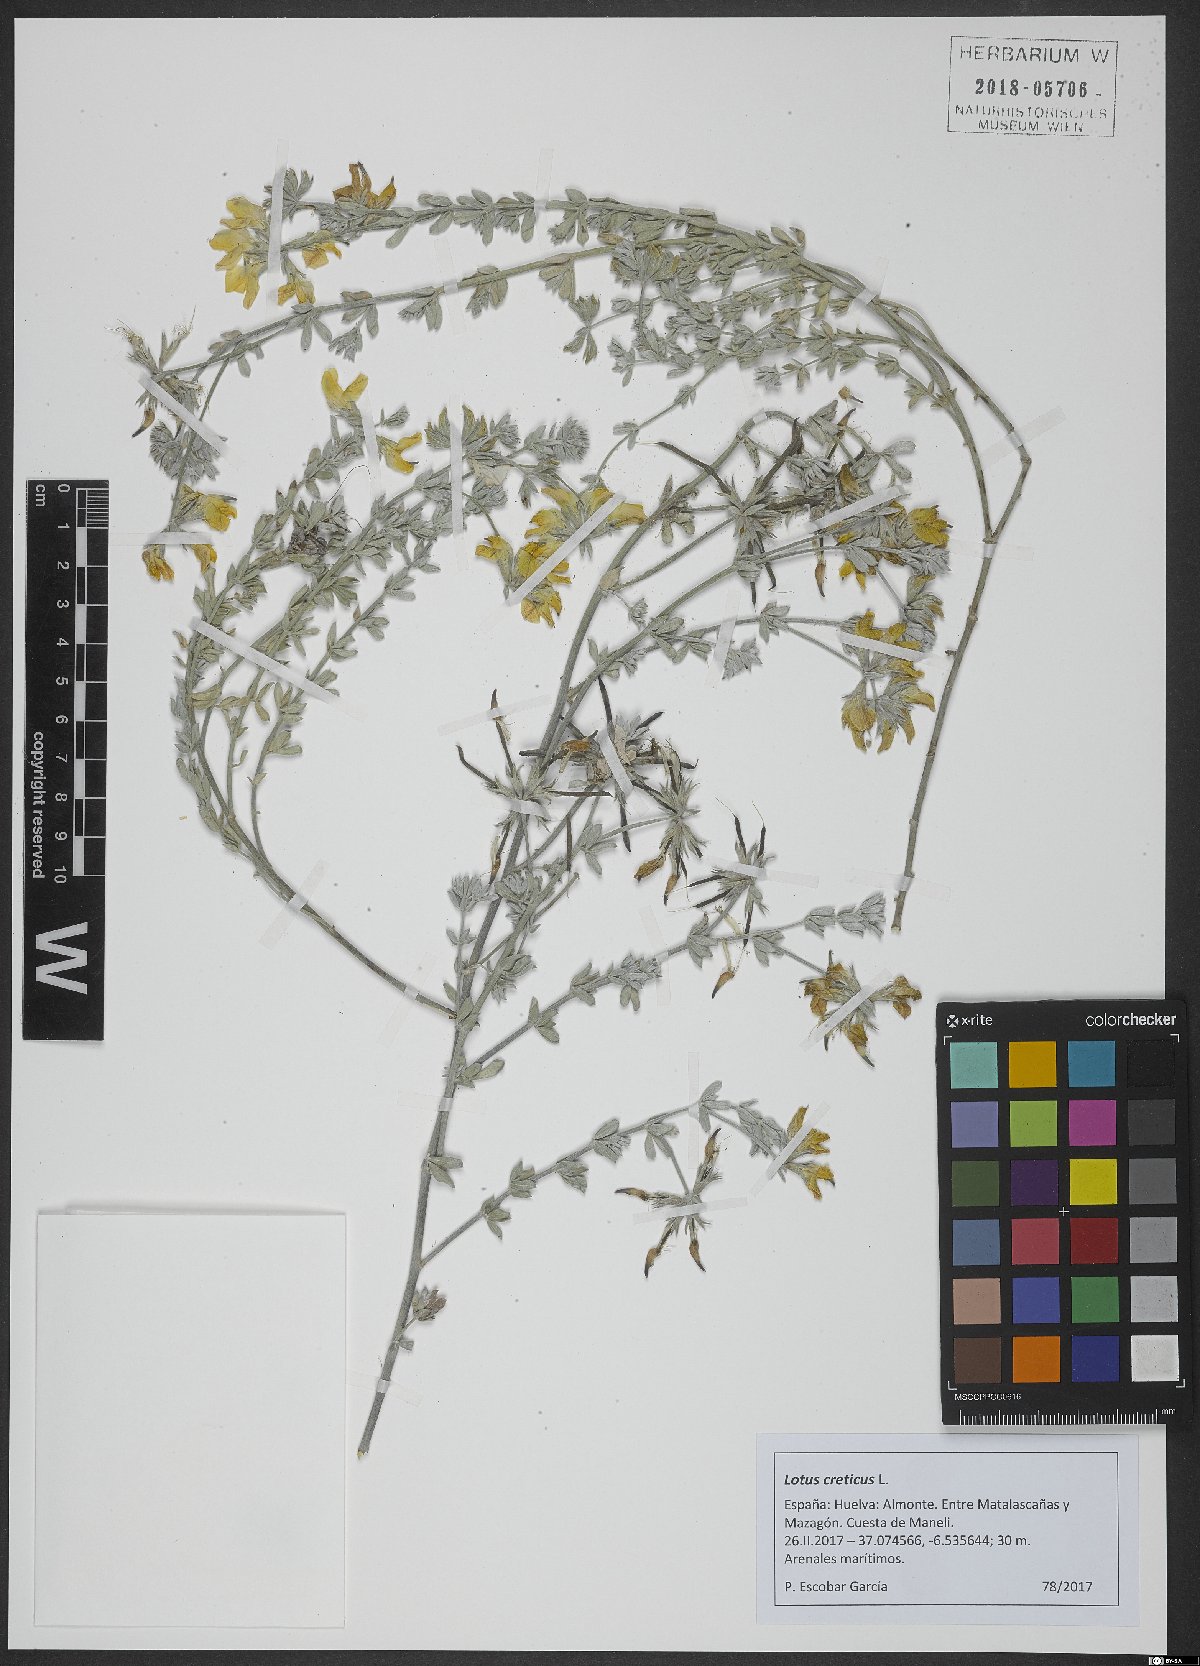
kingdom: Plantae
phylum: Tracheophyta
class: Magnoliopsida
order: Fabales
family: Fabaceae
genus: Lotus
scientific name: Lotus creticus
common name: Cretan bird's-foot trefoil
